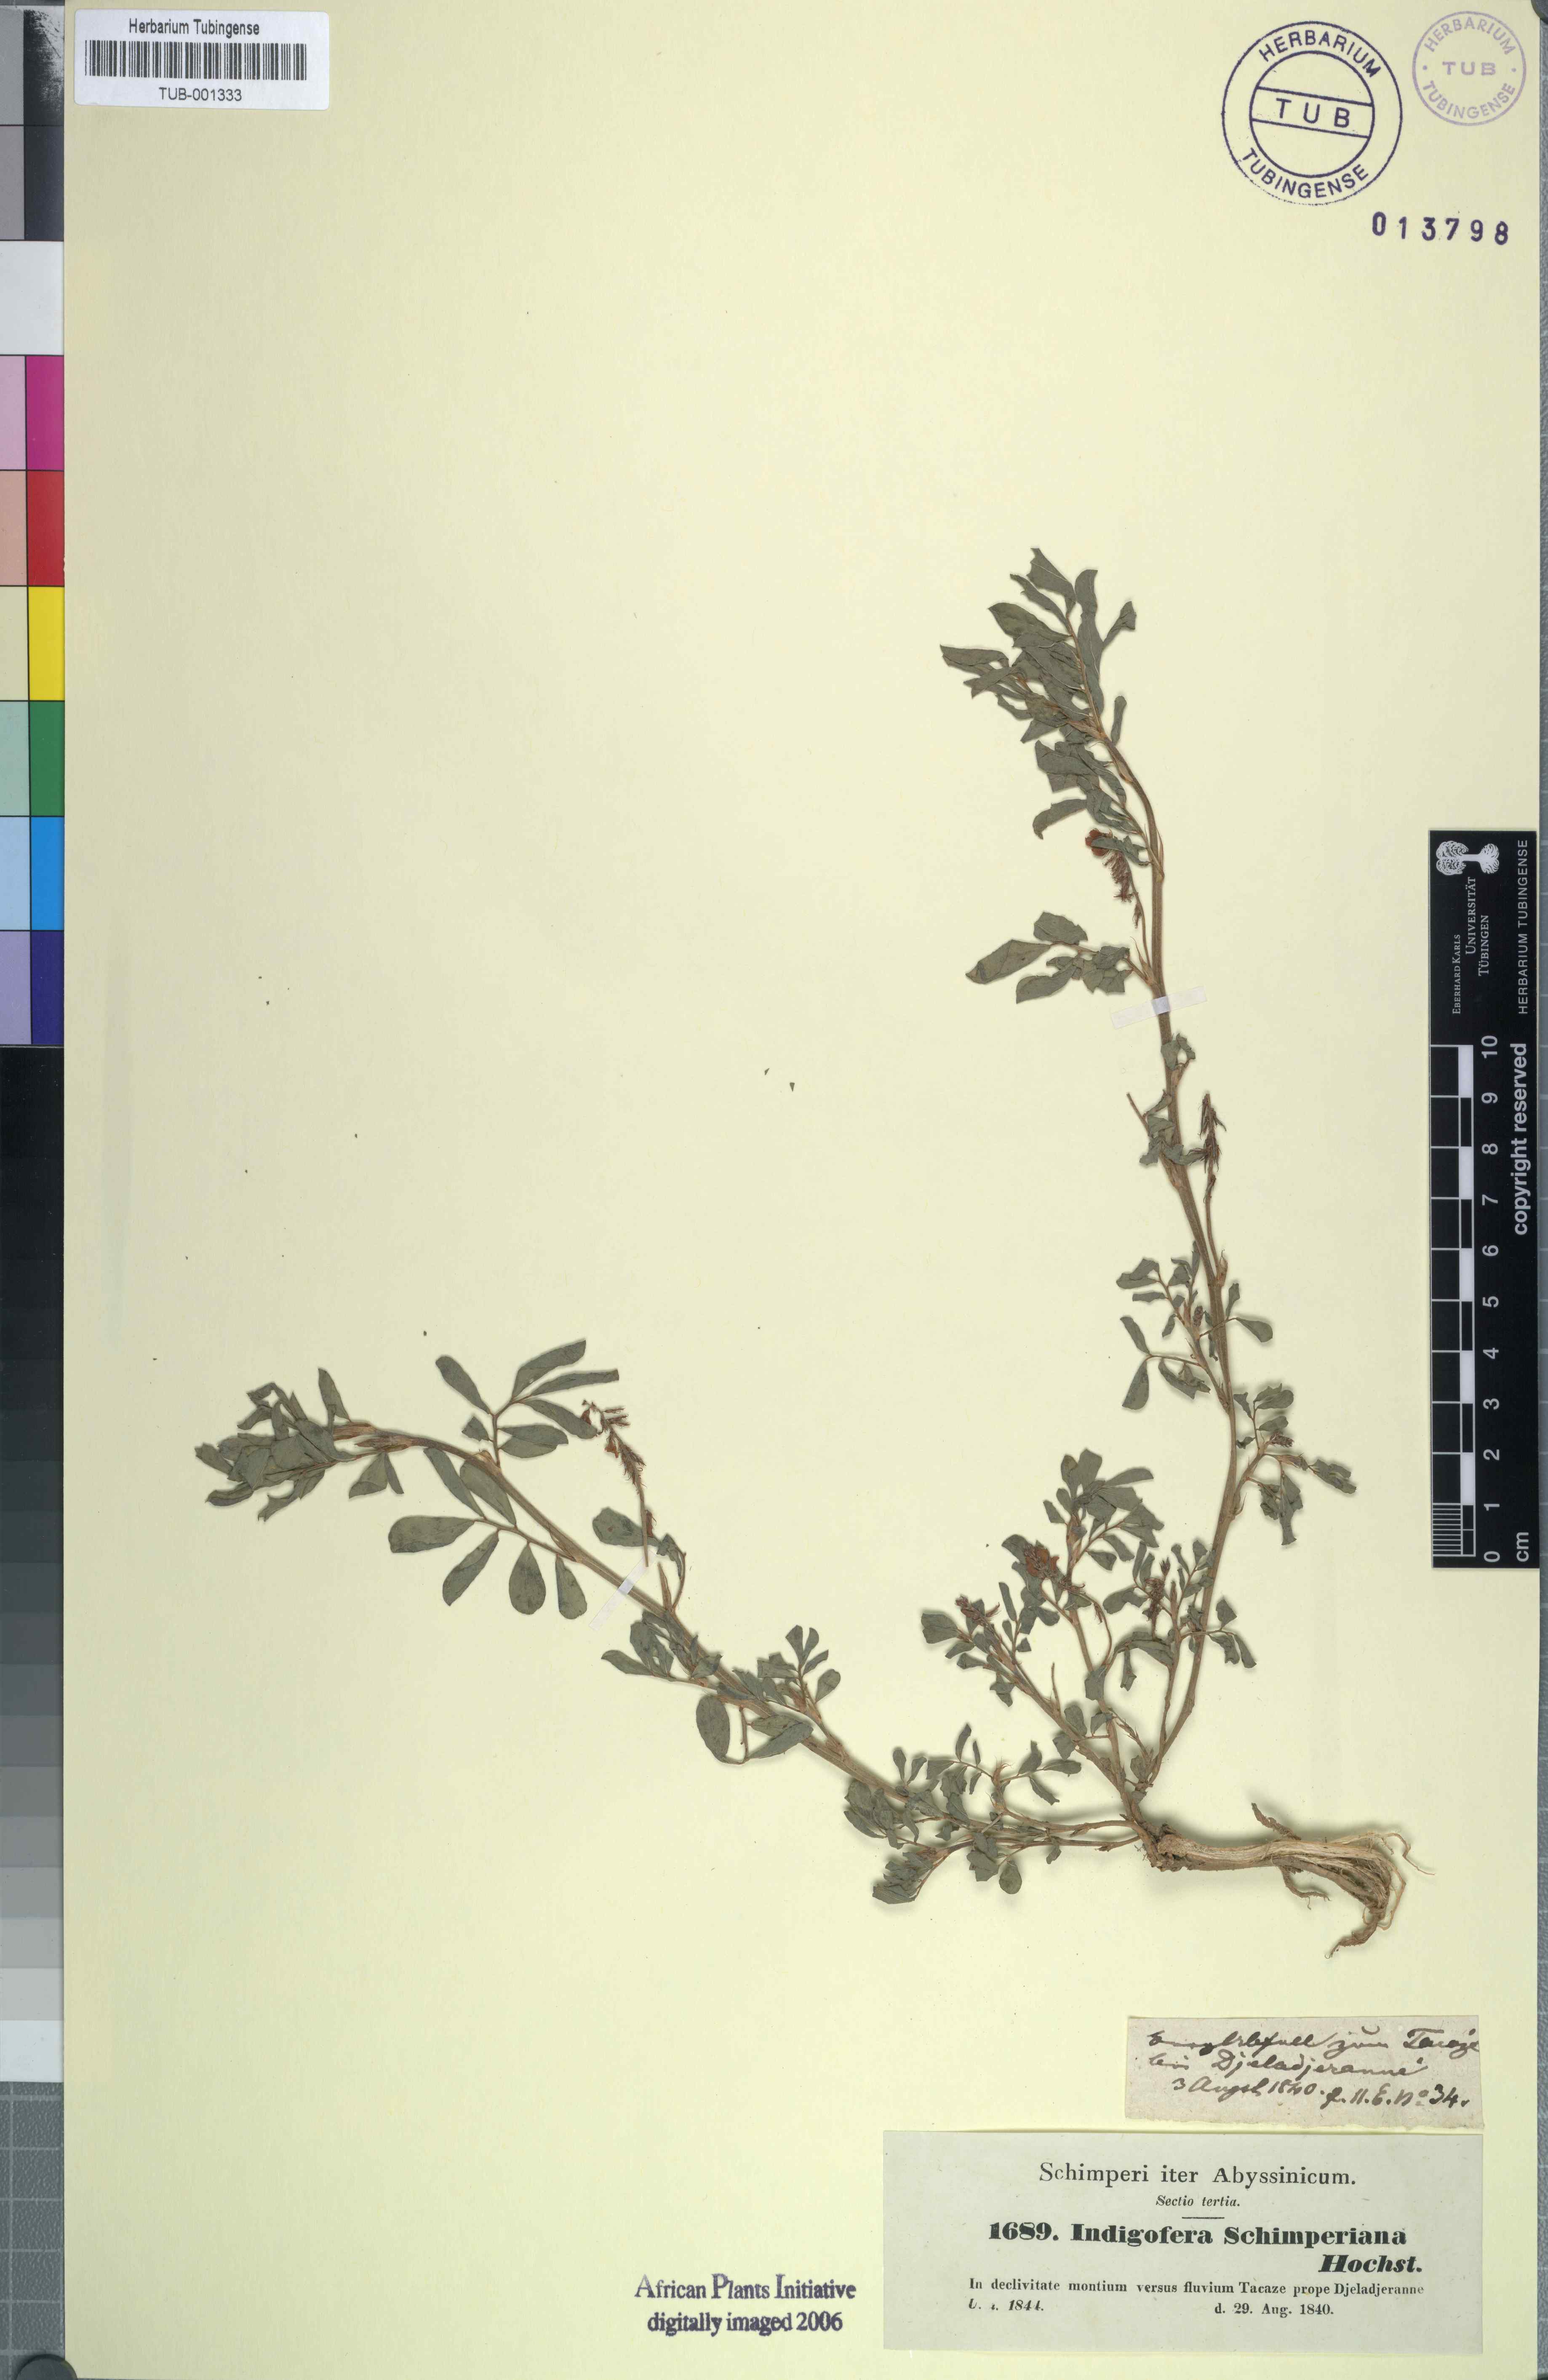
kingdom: Plantae
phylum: Tracheophyta
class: Magnoliopsida
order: Fabales
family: Fabaceae
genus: Indigofera
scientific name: Indigofera hendecaphylla
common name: Trailing indigo
